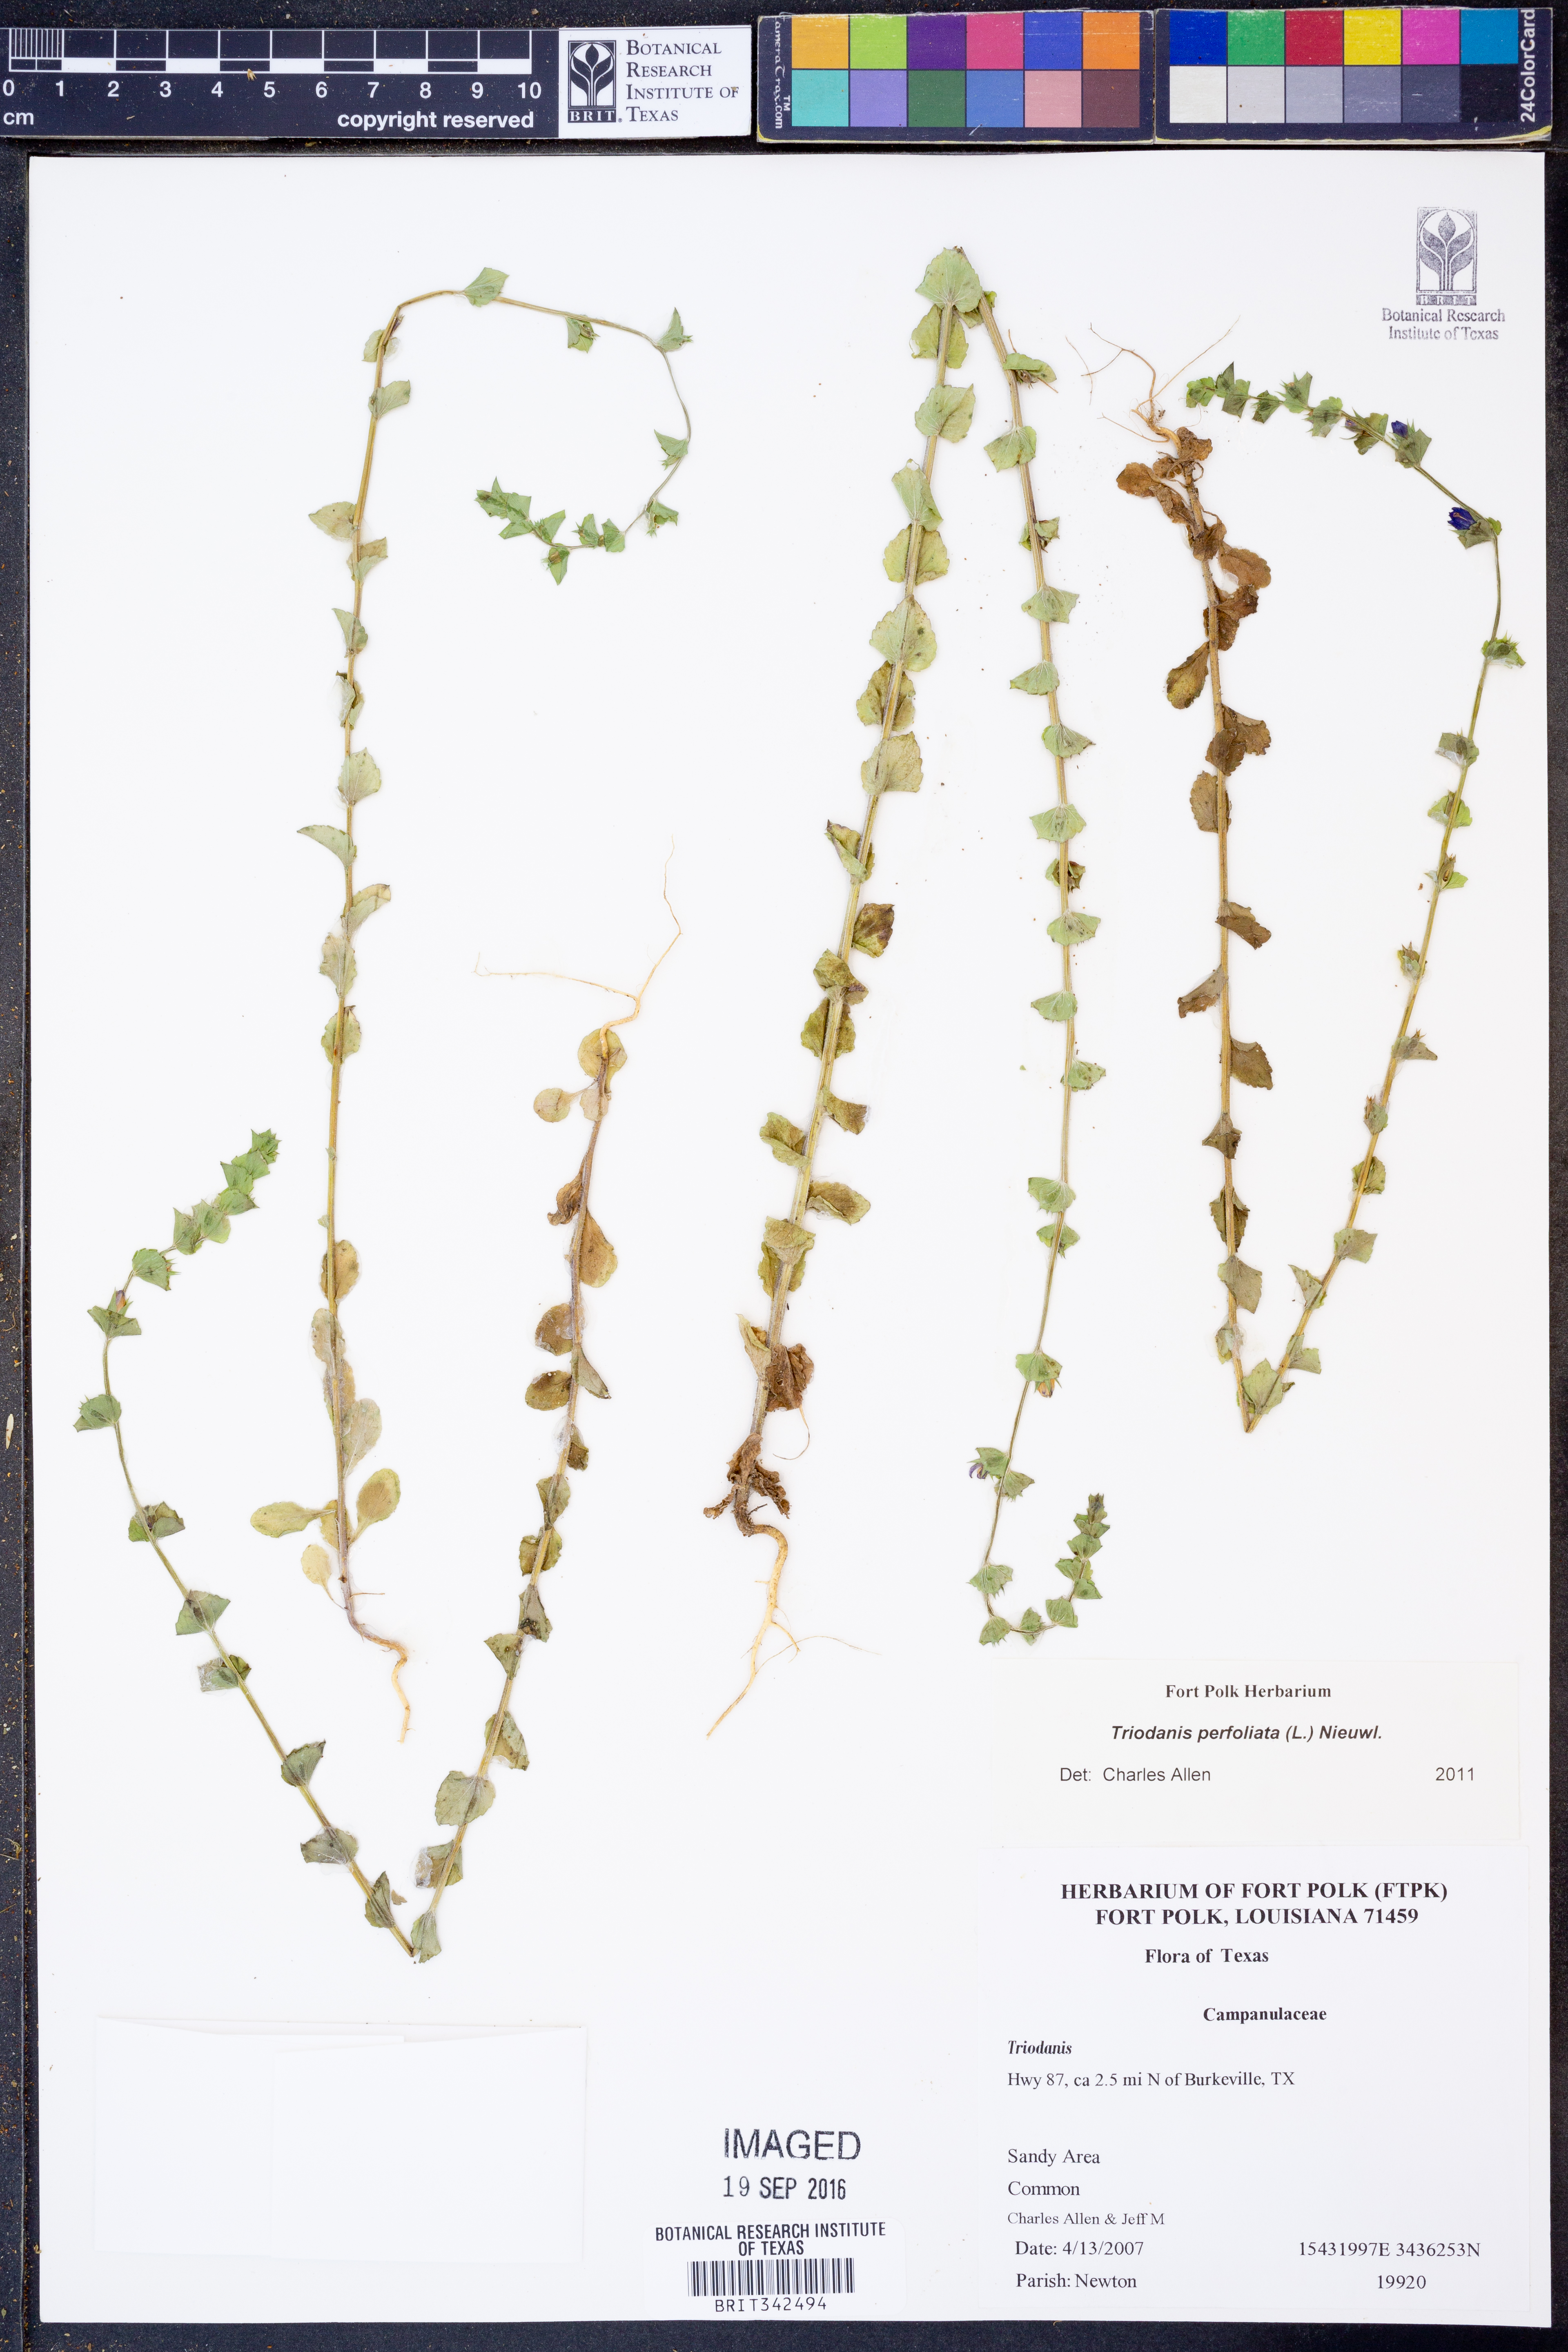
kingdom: Plantae
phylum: Tracheophyta
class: Magnoliopsida
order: Asterales
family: Campanulaceae
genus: Triodanis
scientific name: Triodanis perfoliata
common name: Clasping venus' looking-glass
